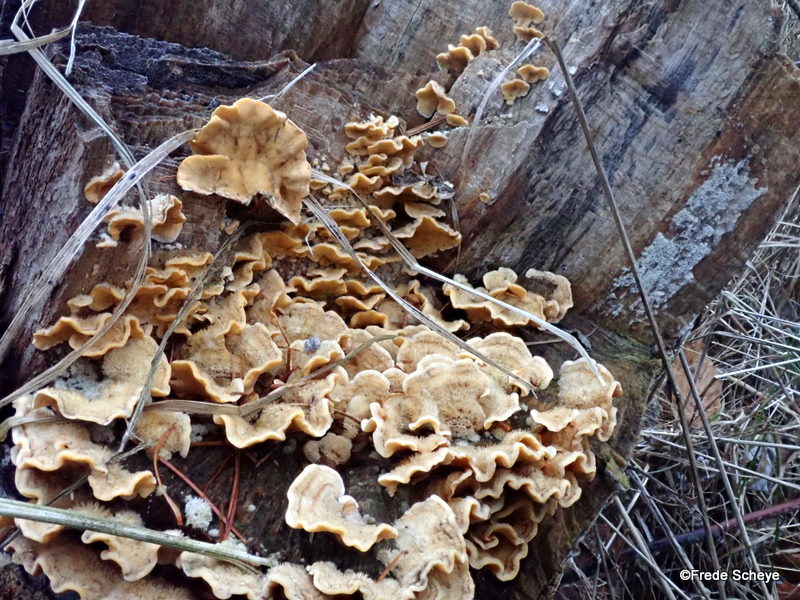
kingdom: Fungi
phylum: Basidiomycota
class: Agaricomycetes
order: Russulales
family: Stereaceae
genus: Stereum
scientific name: Stereum hirsutum
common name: håret lædersvamp
